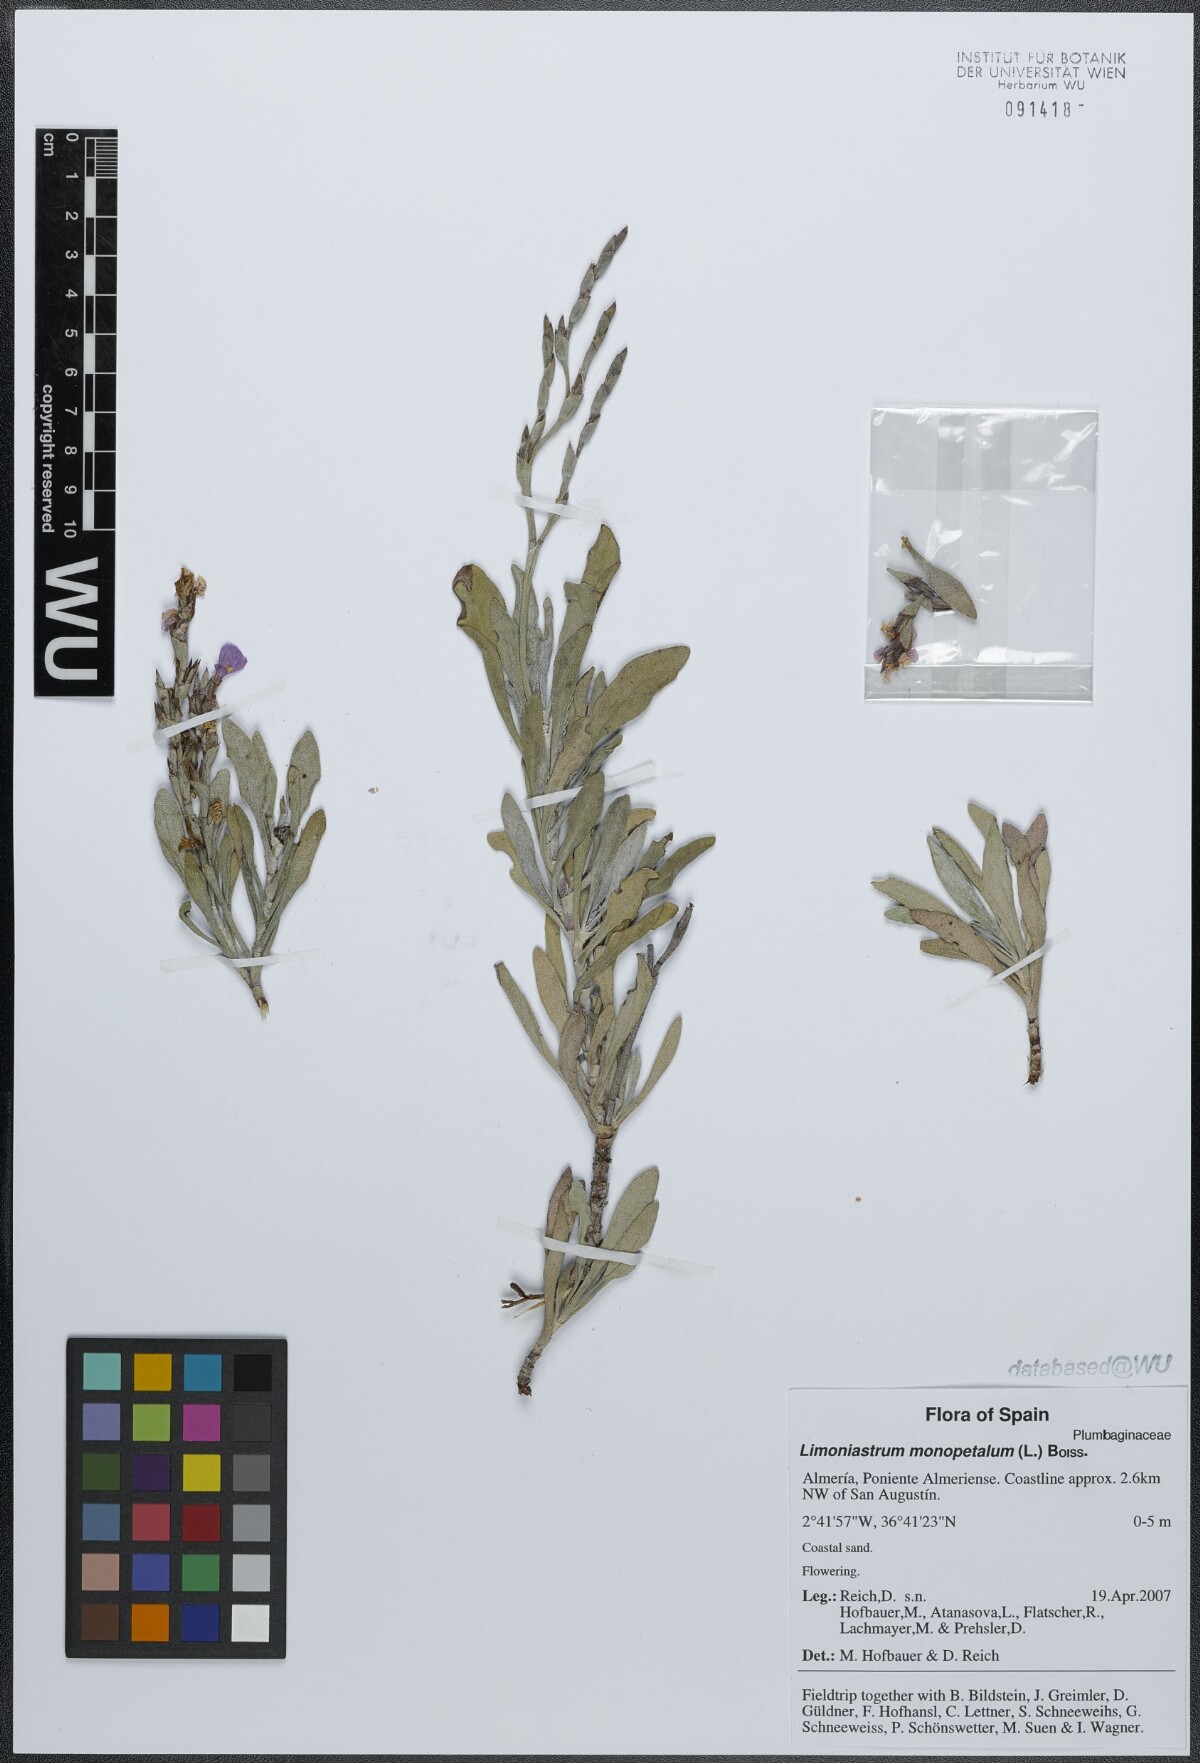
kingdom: Plantae
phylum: Tracheophyta
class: Magnoliopsida
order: Caryophyllales
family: Plumbaginaceae
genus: Limoniastrum
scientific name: Limoniastrum monopetalum
